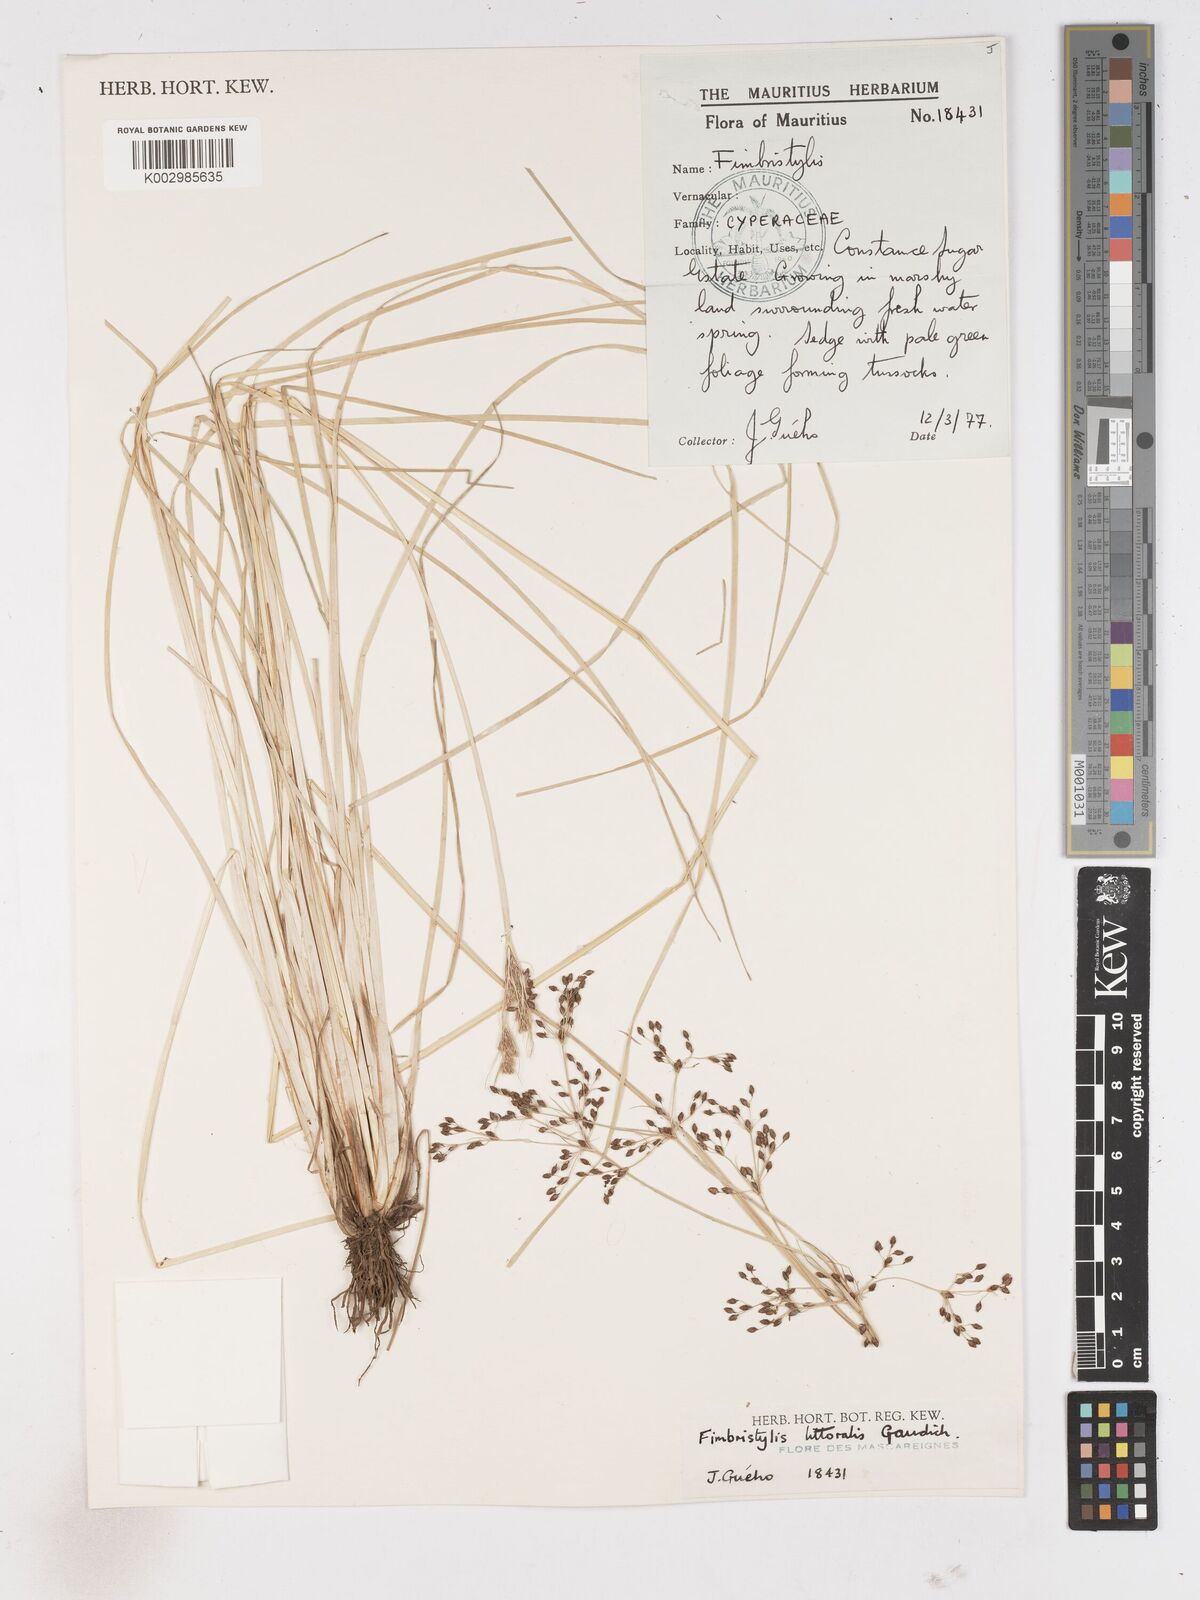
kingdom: Plantae
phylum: Tracheophyta
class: Liliopsida
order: Poales
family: Cyperaceae
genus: Fimbristylis
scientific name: Fimbristylis littoralis
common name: Fimbry
